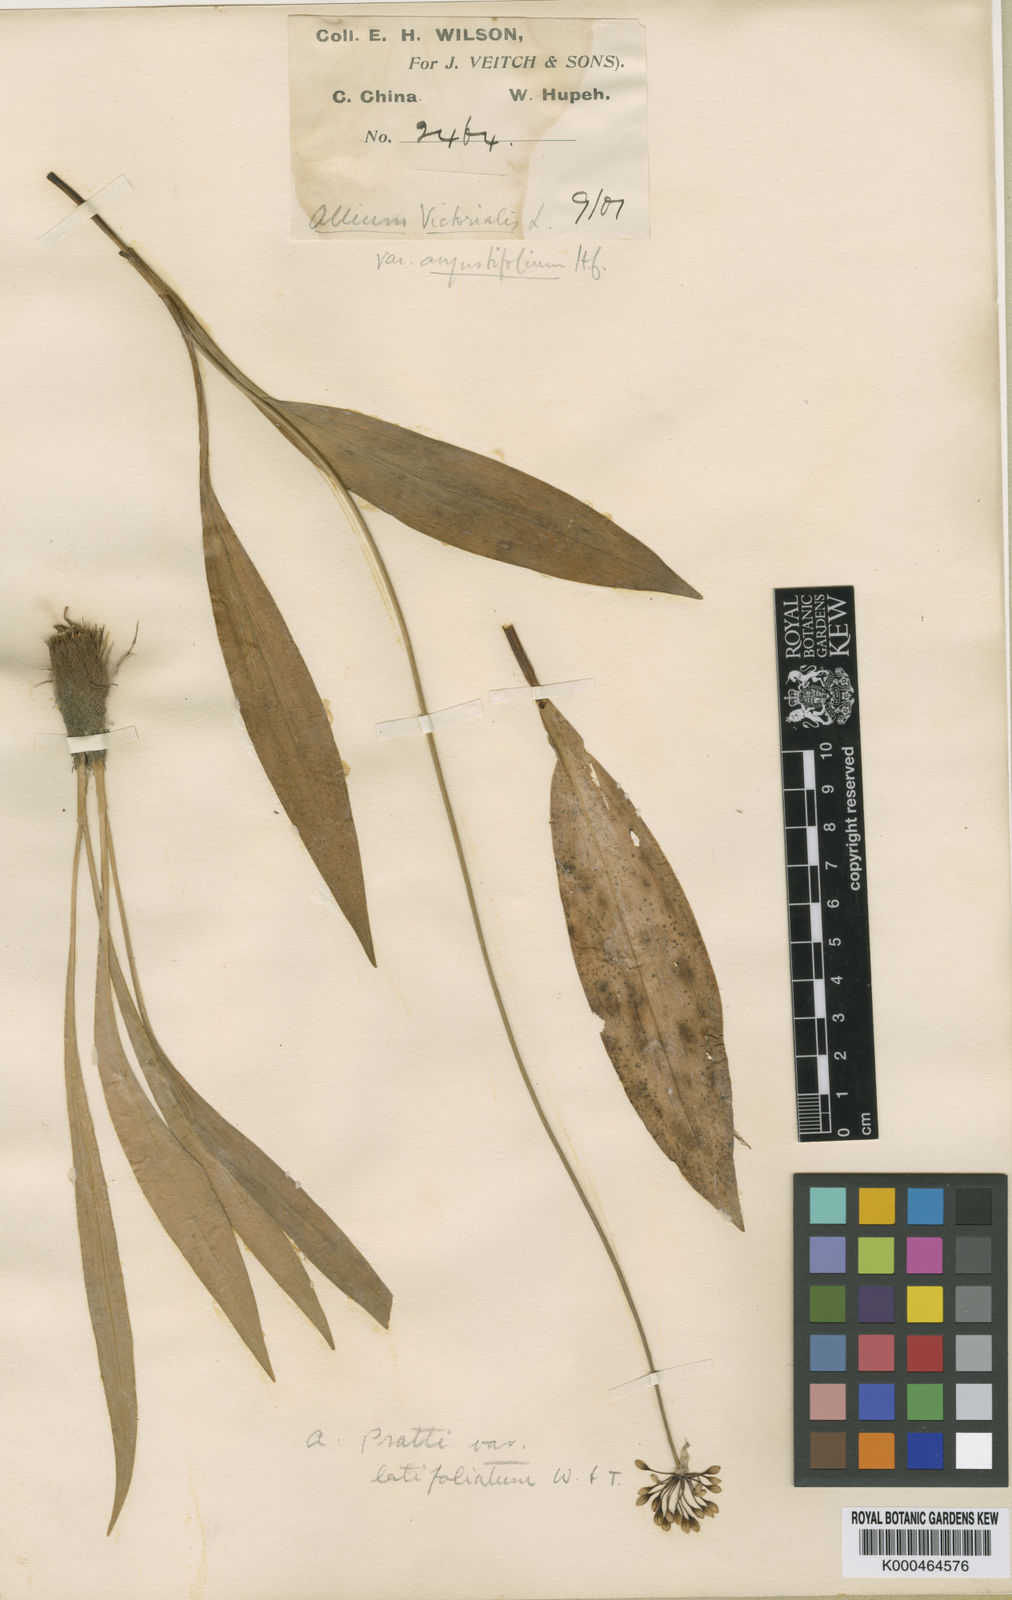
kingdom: Plantae
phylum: Tracheophyta
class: Liliopsida
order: Asparagales
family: Amaryllidaceae
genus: Allium
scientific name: Allium prattii
